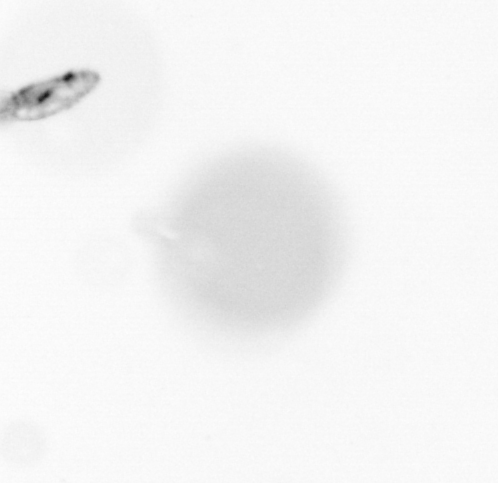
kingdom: Animalia
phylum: Arthropoda
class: Copepoda
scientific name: Copepoda
